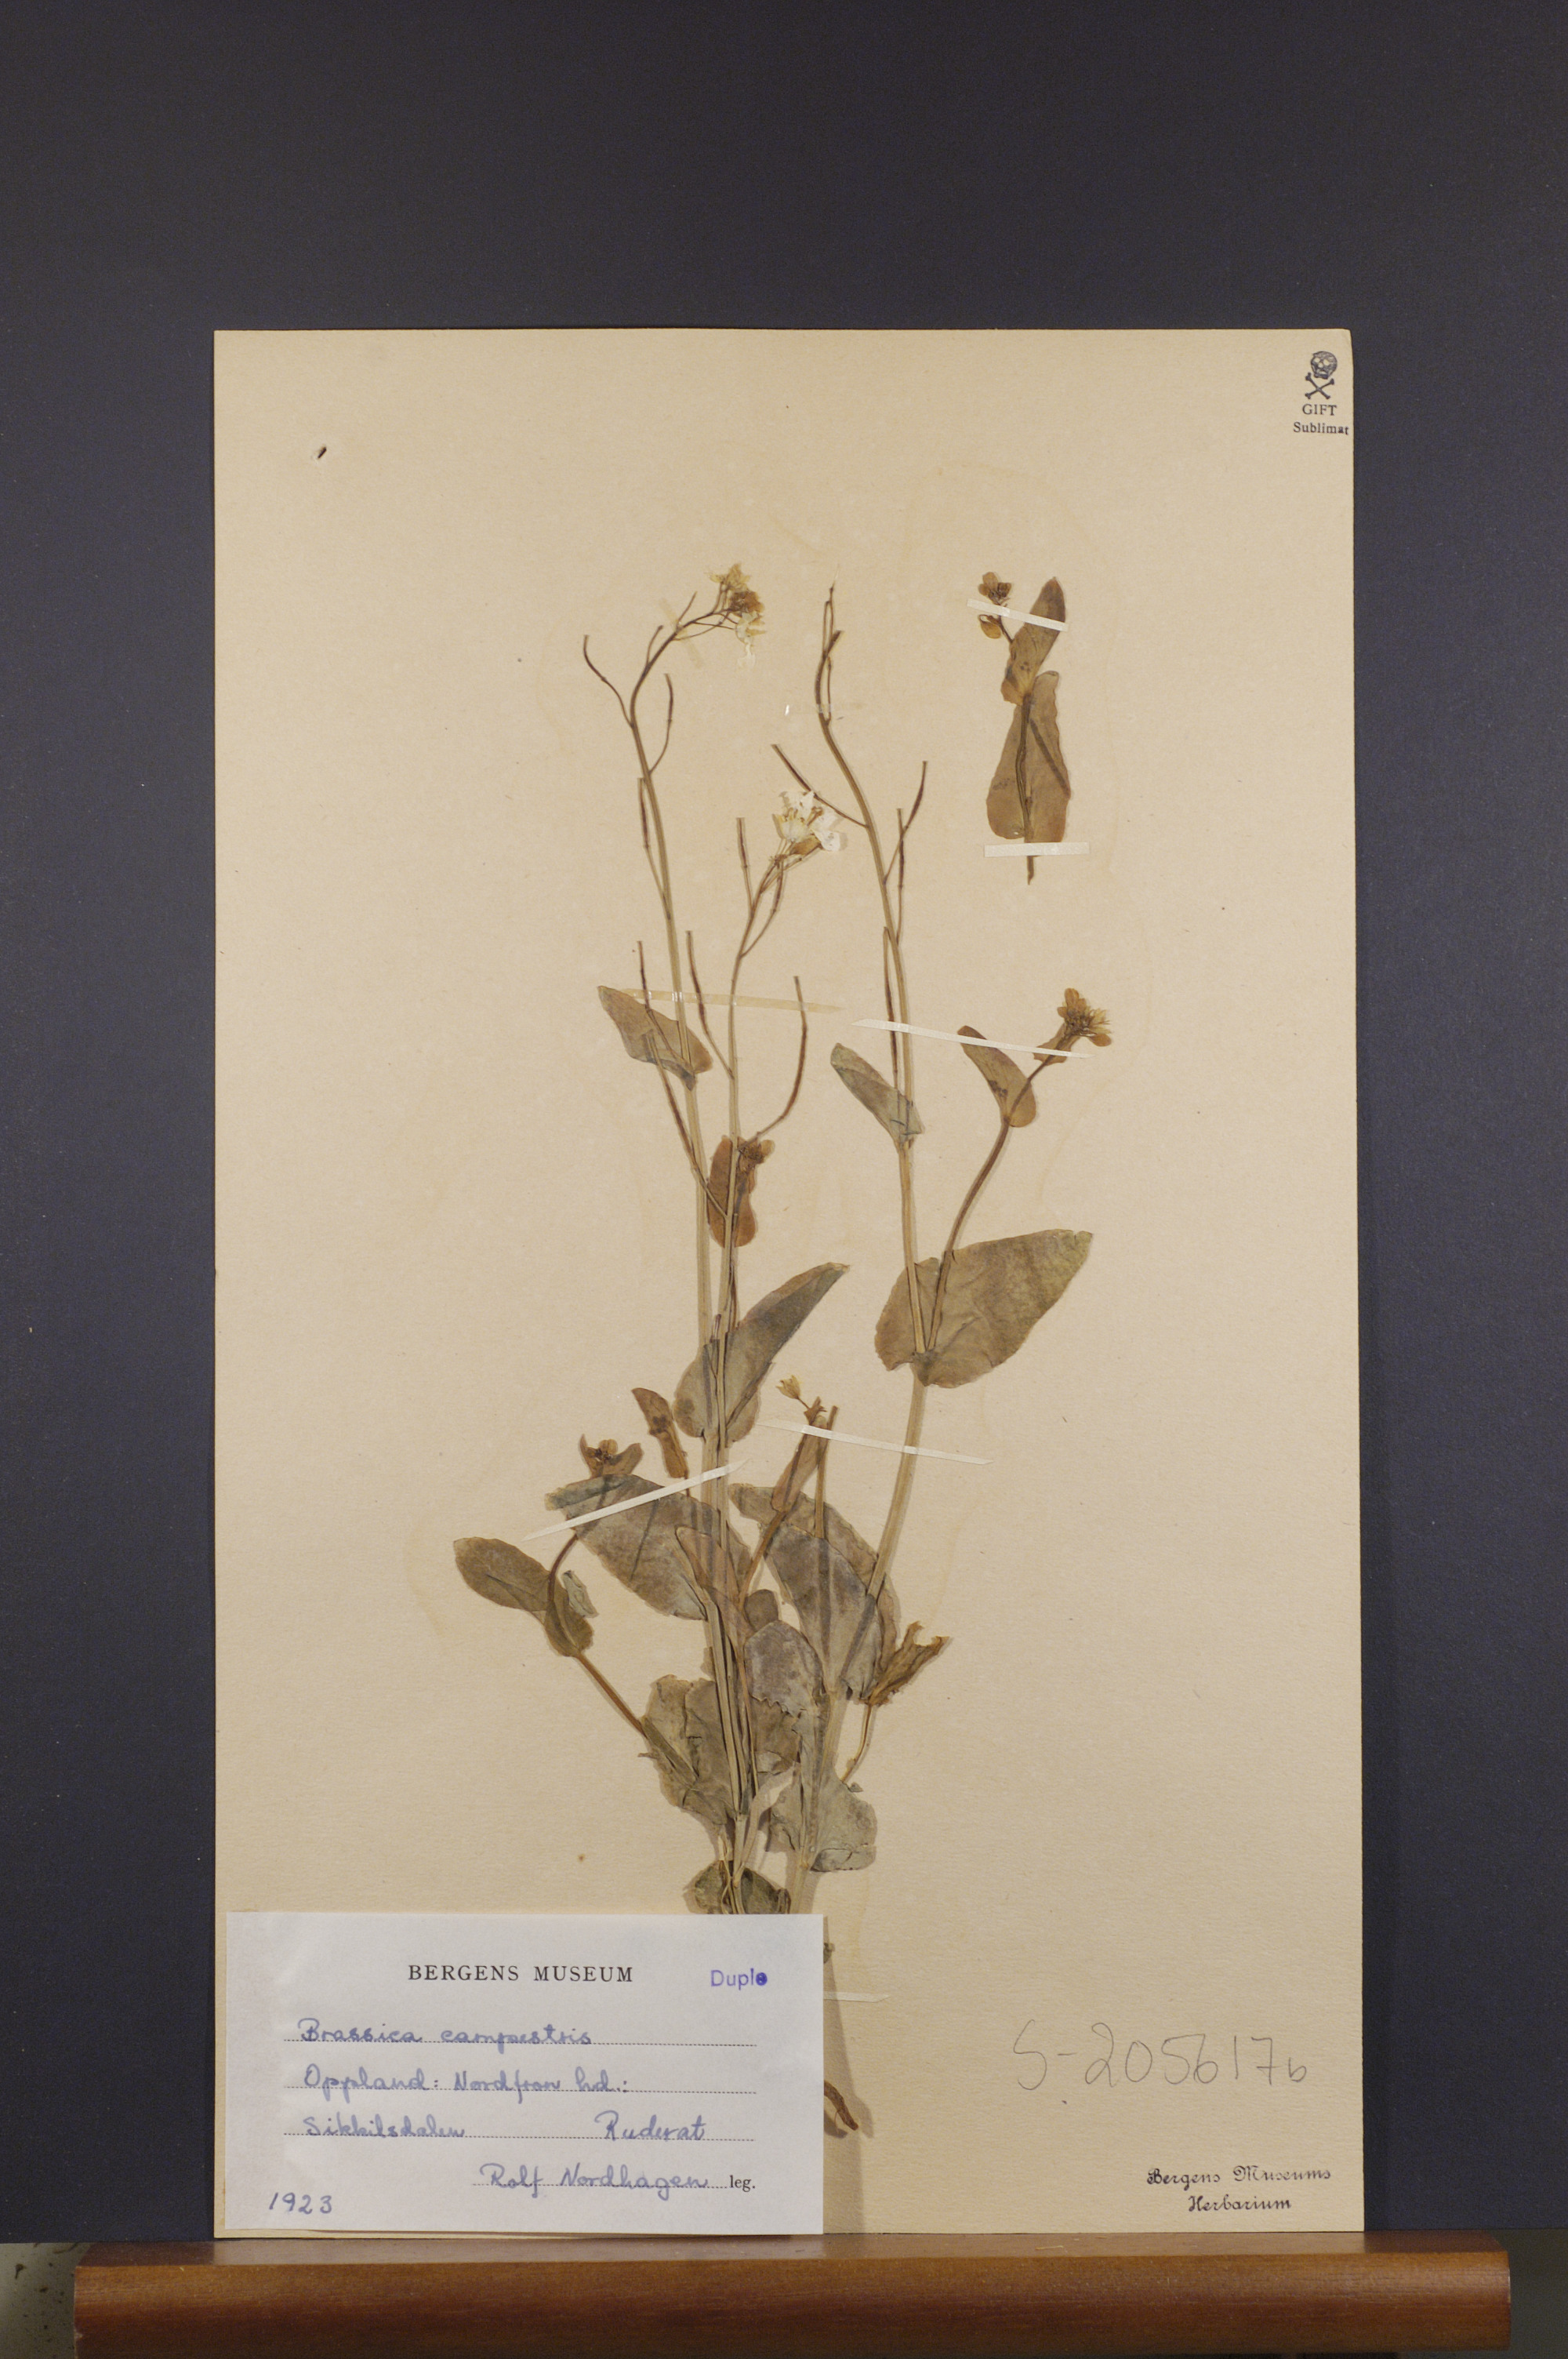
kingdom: Plantae
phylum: Tracheophyta
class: Magnoliopsida
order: Brassicales
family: Brassicaceae
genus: Brassica
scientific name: Brassica rapa
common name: Field mustard
